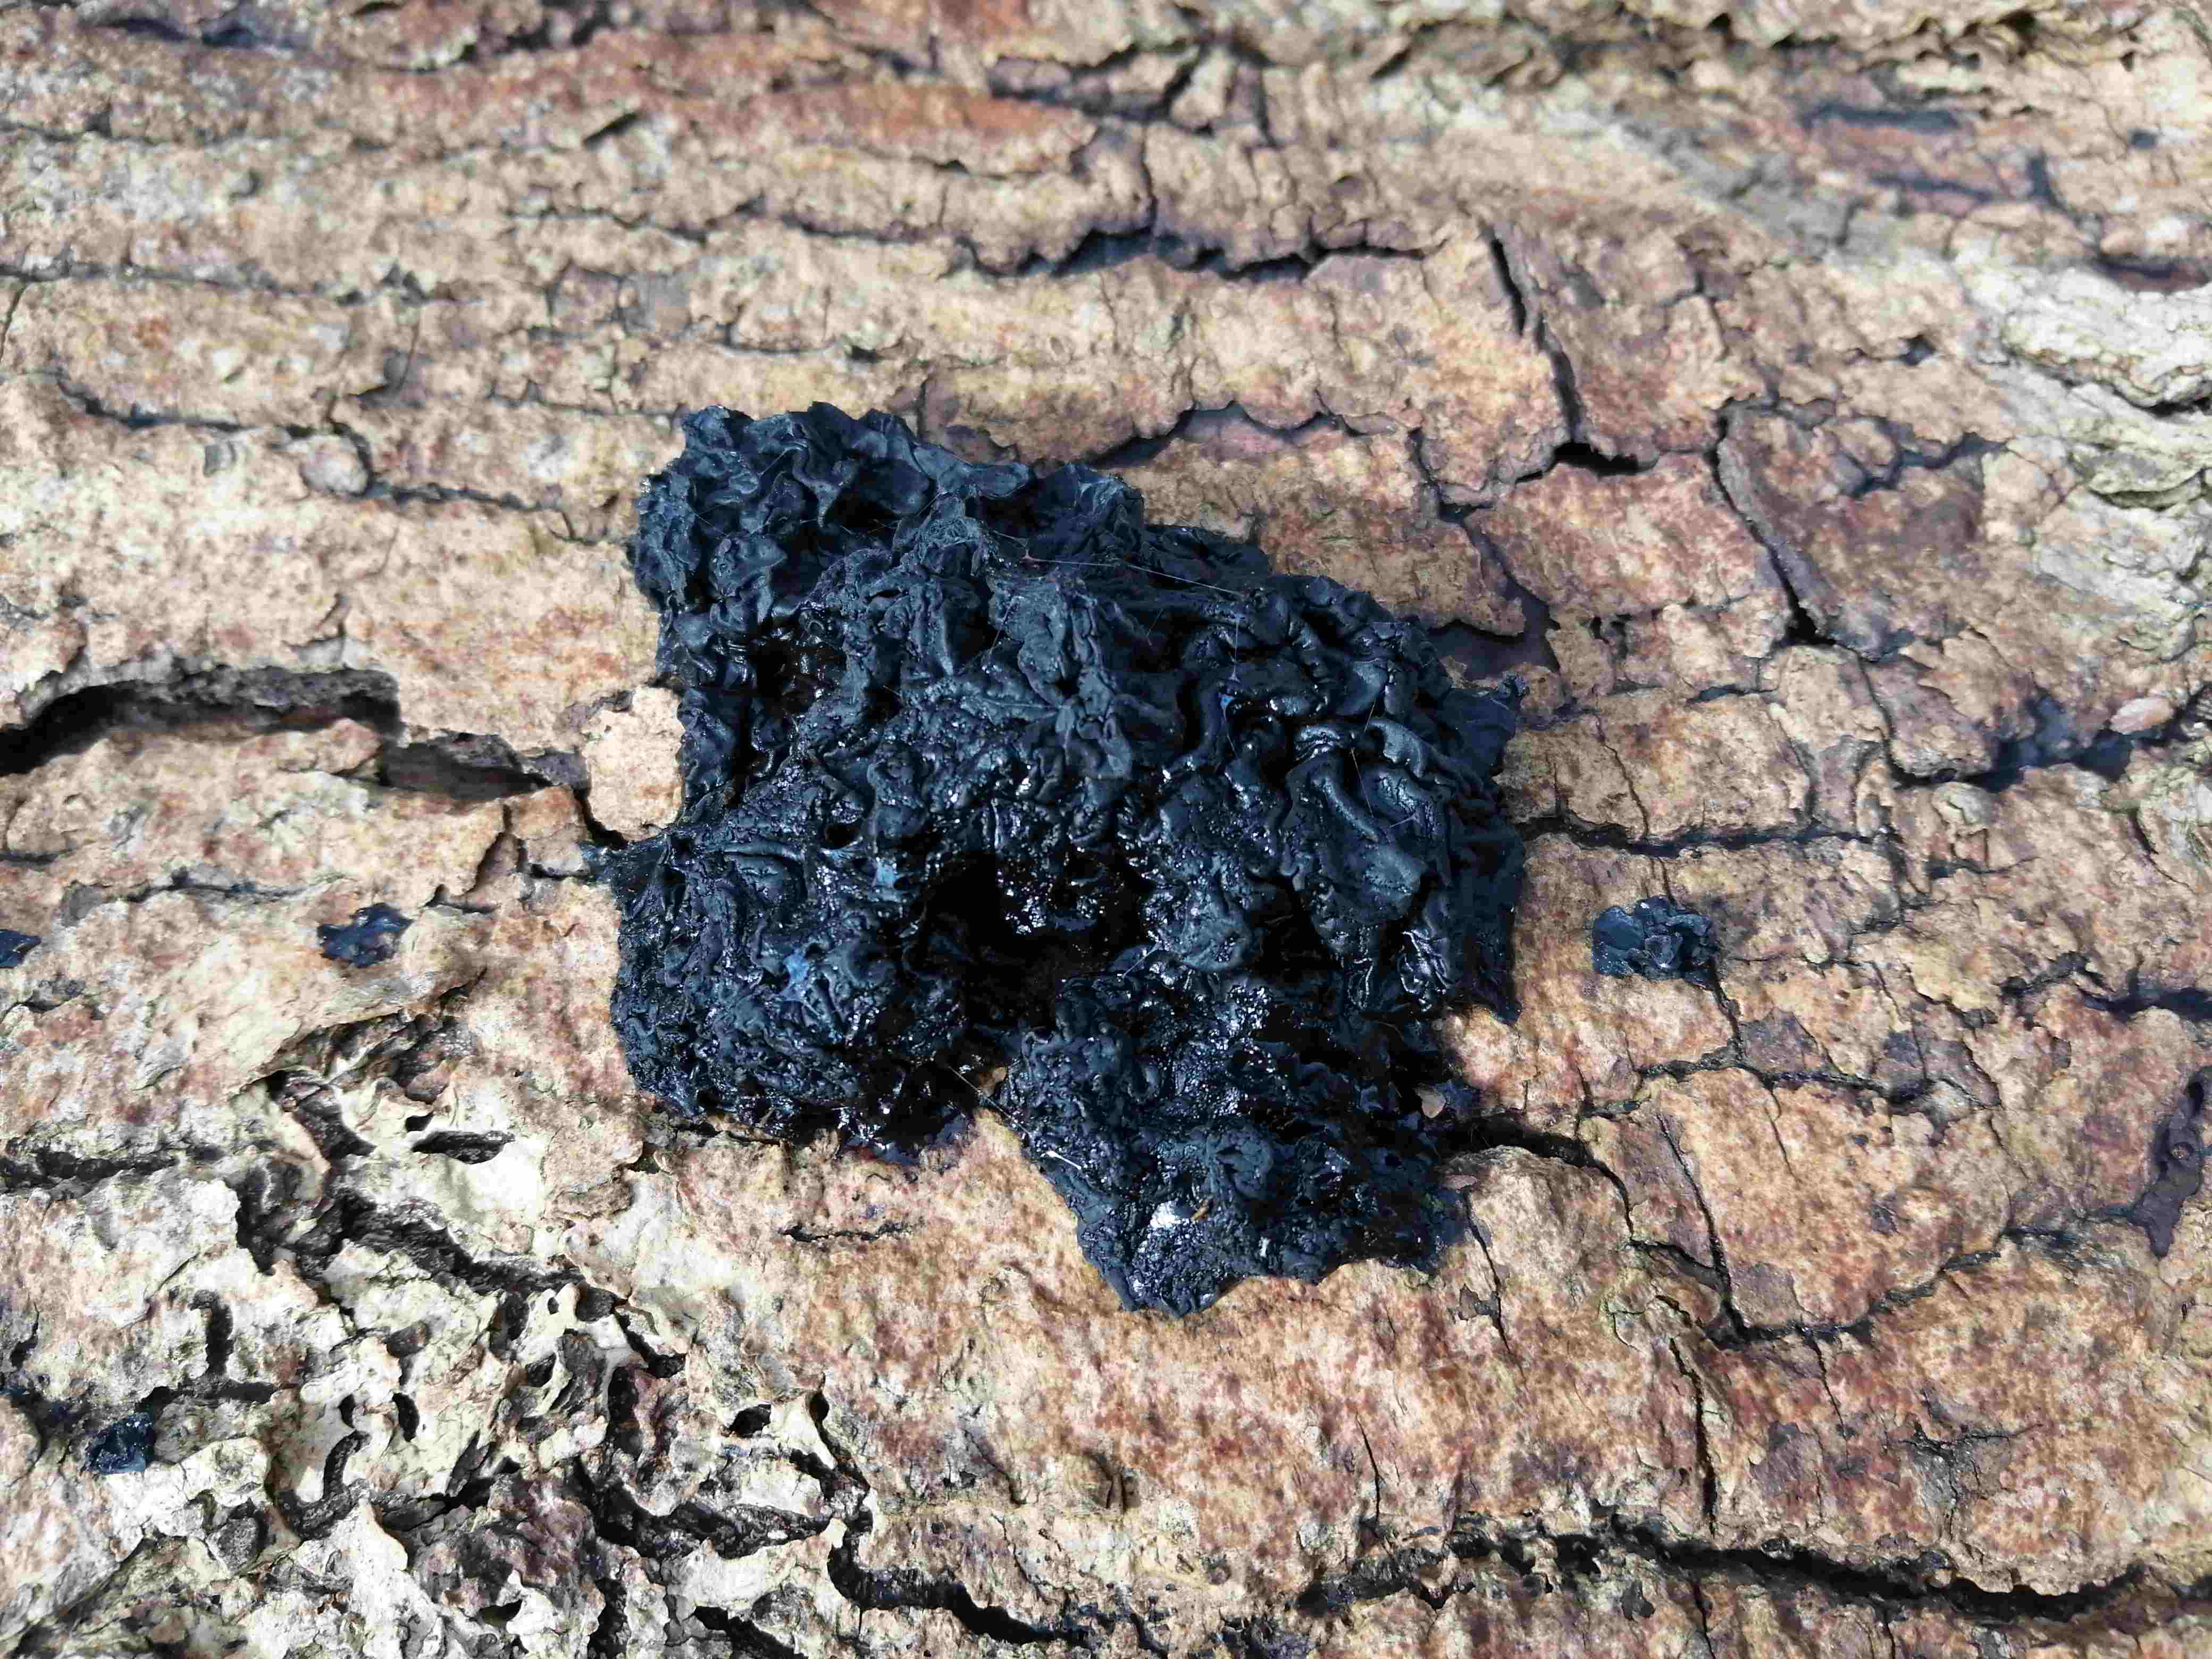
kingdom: Fungi
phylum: Basidiomycota
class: Agaricomycetes
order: Auriculariales
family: Auriculariaceae
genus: Exidia
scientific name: Exidia nigricans
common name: almindelig bævretop
